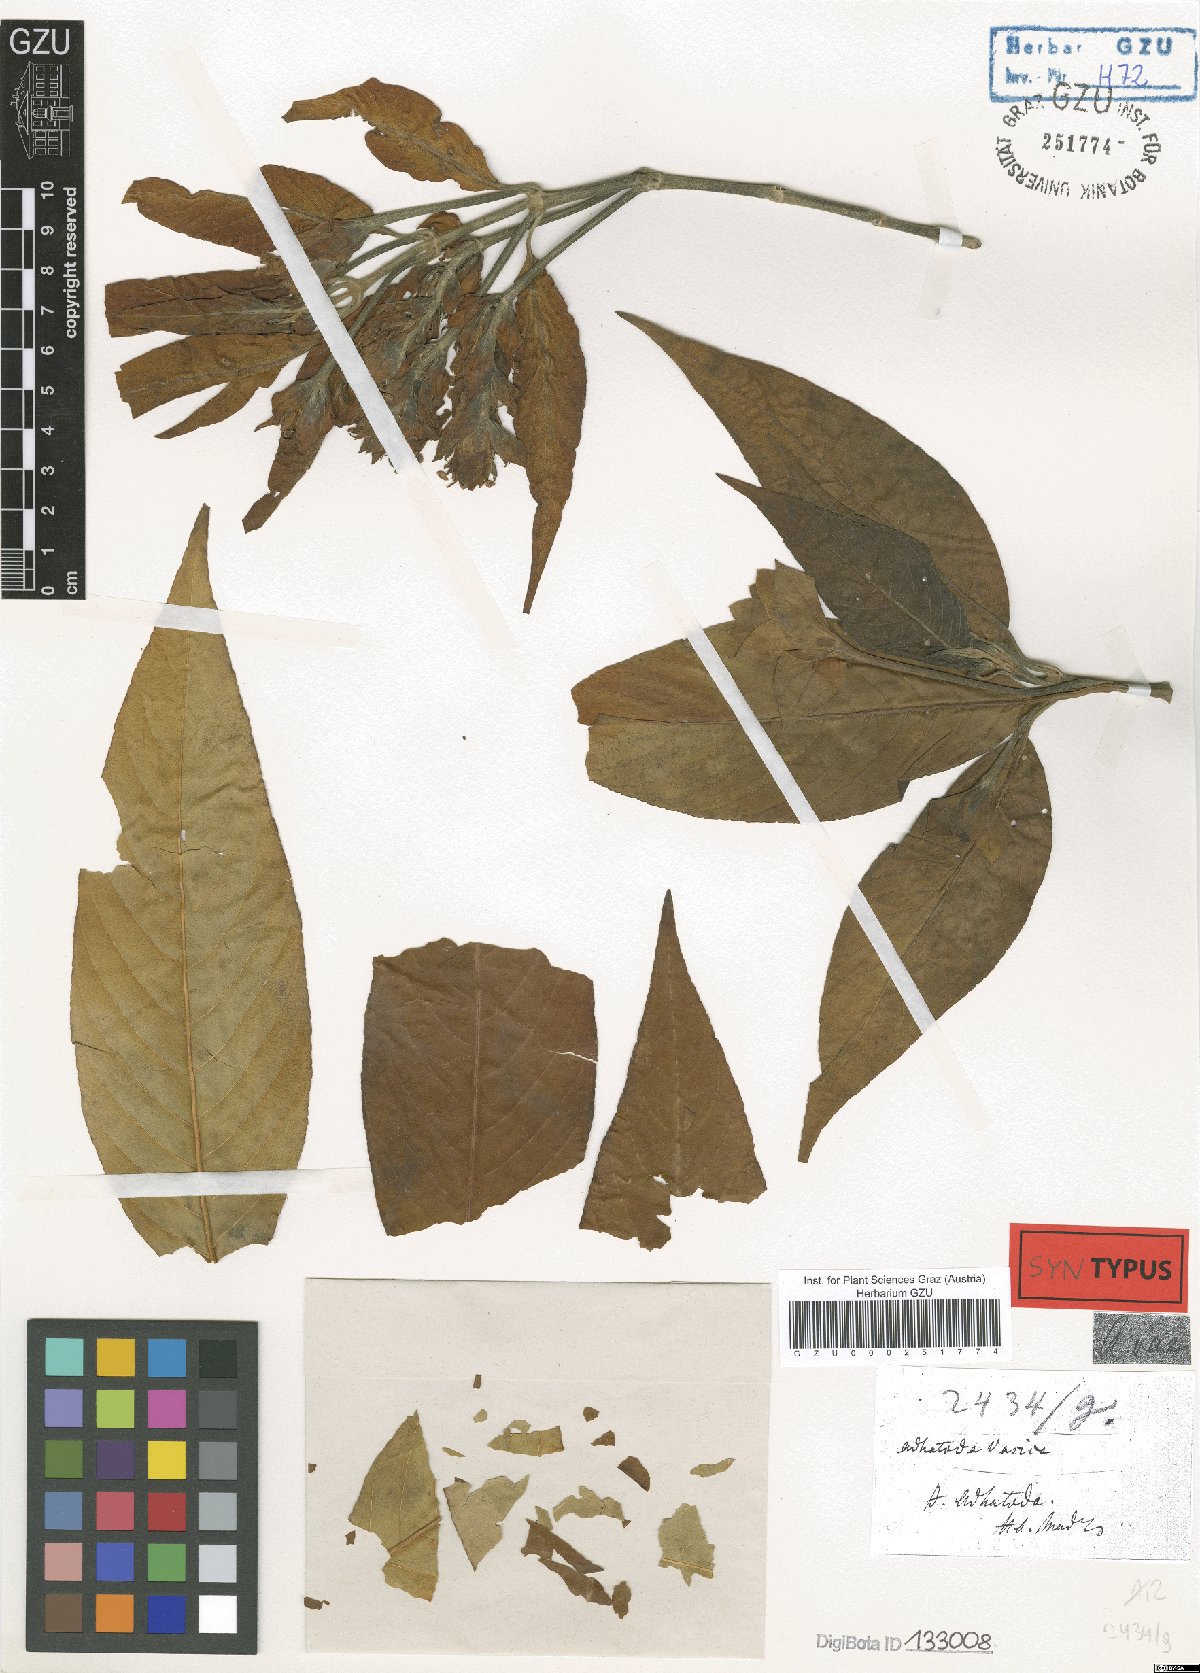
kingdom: Plantae
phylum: Tracheophyta
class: Magnoliopsida
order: Lamiales
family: Acanthaceae
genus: Justicia
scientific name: Justicia adhatoda
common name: Malabar nut
